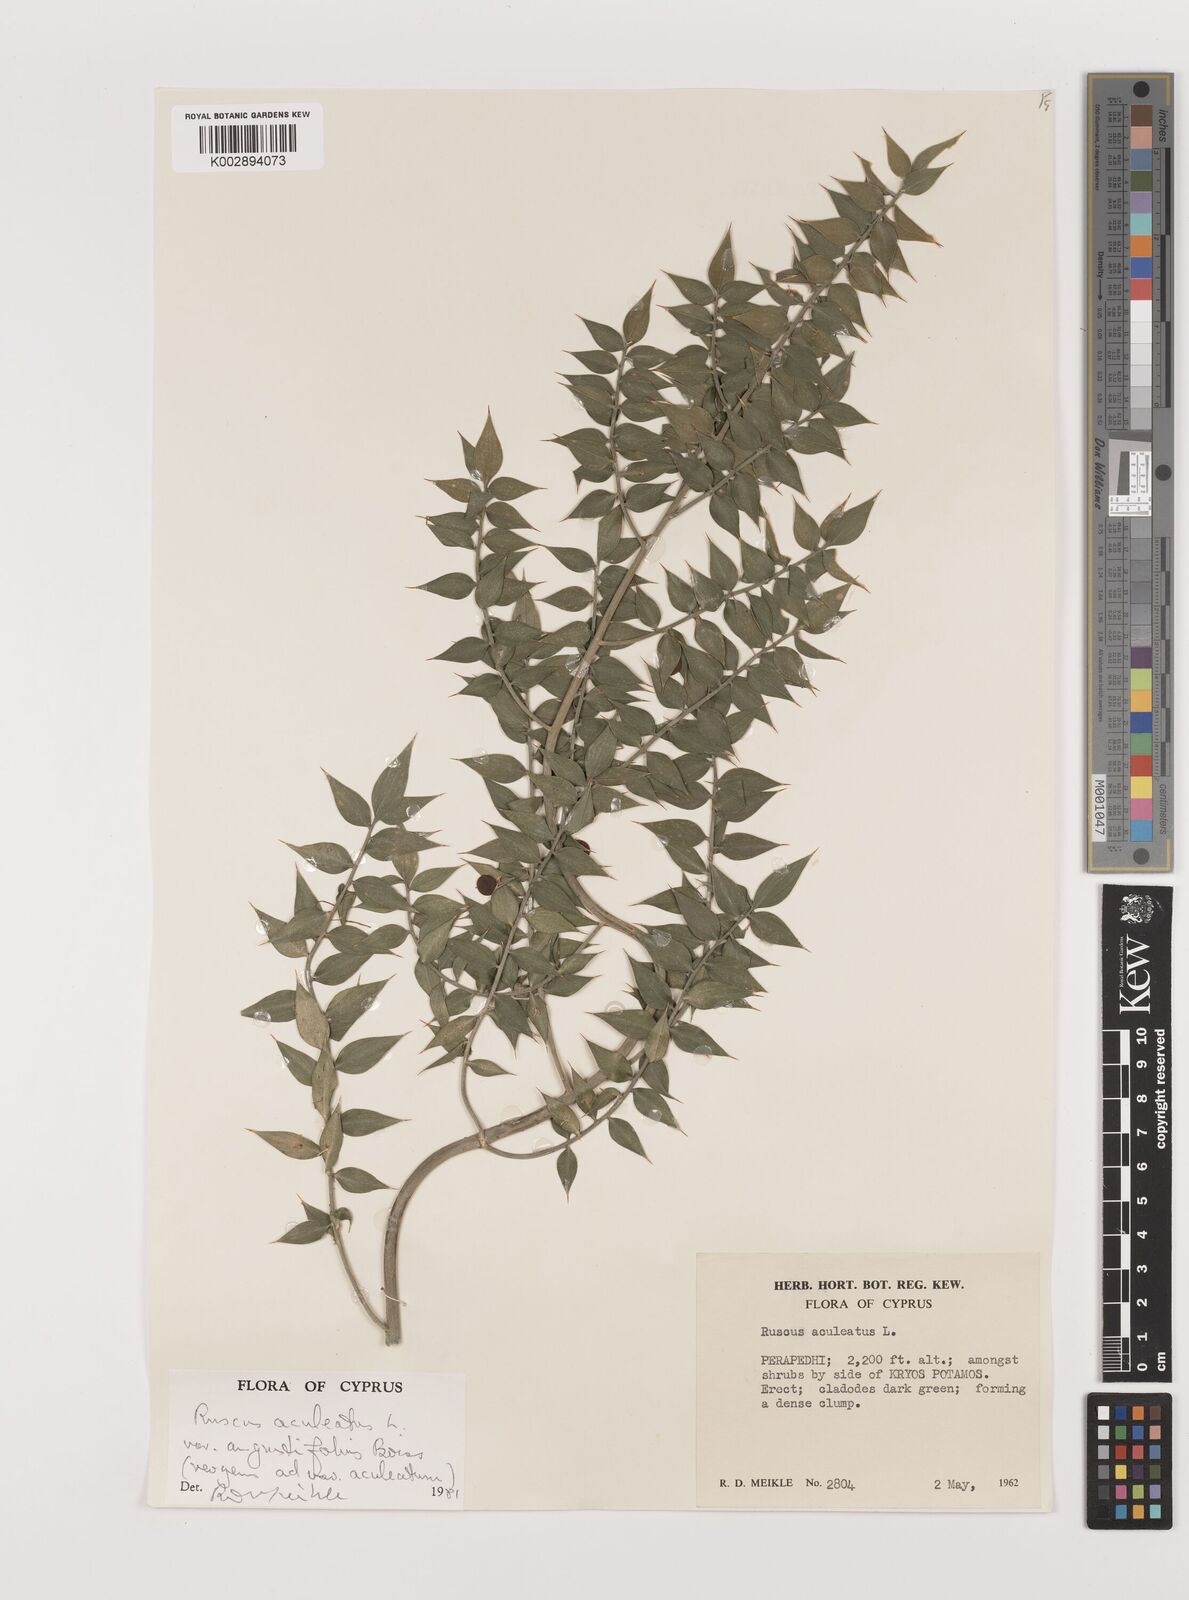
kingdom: Plantae
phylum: Tracheophyta
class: Liliopsida
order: Asparagales
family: Asparagaceae
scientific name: Asparagaceae
